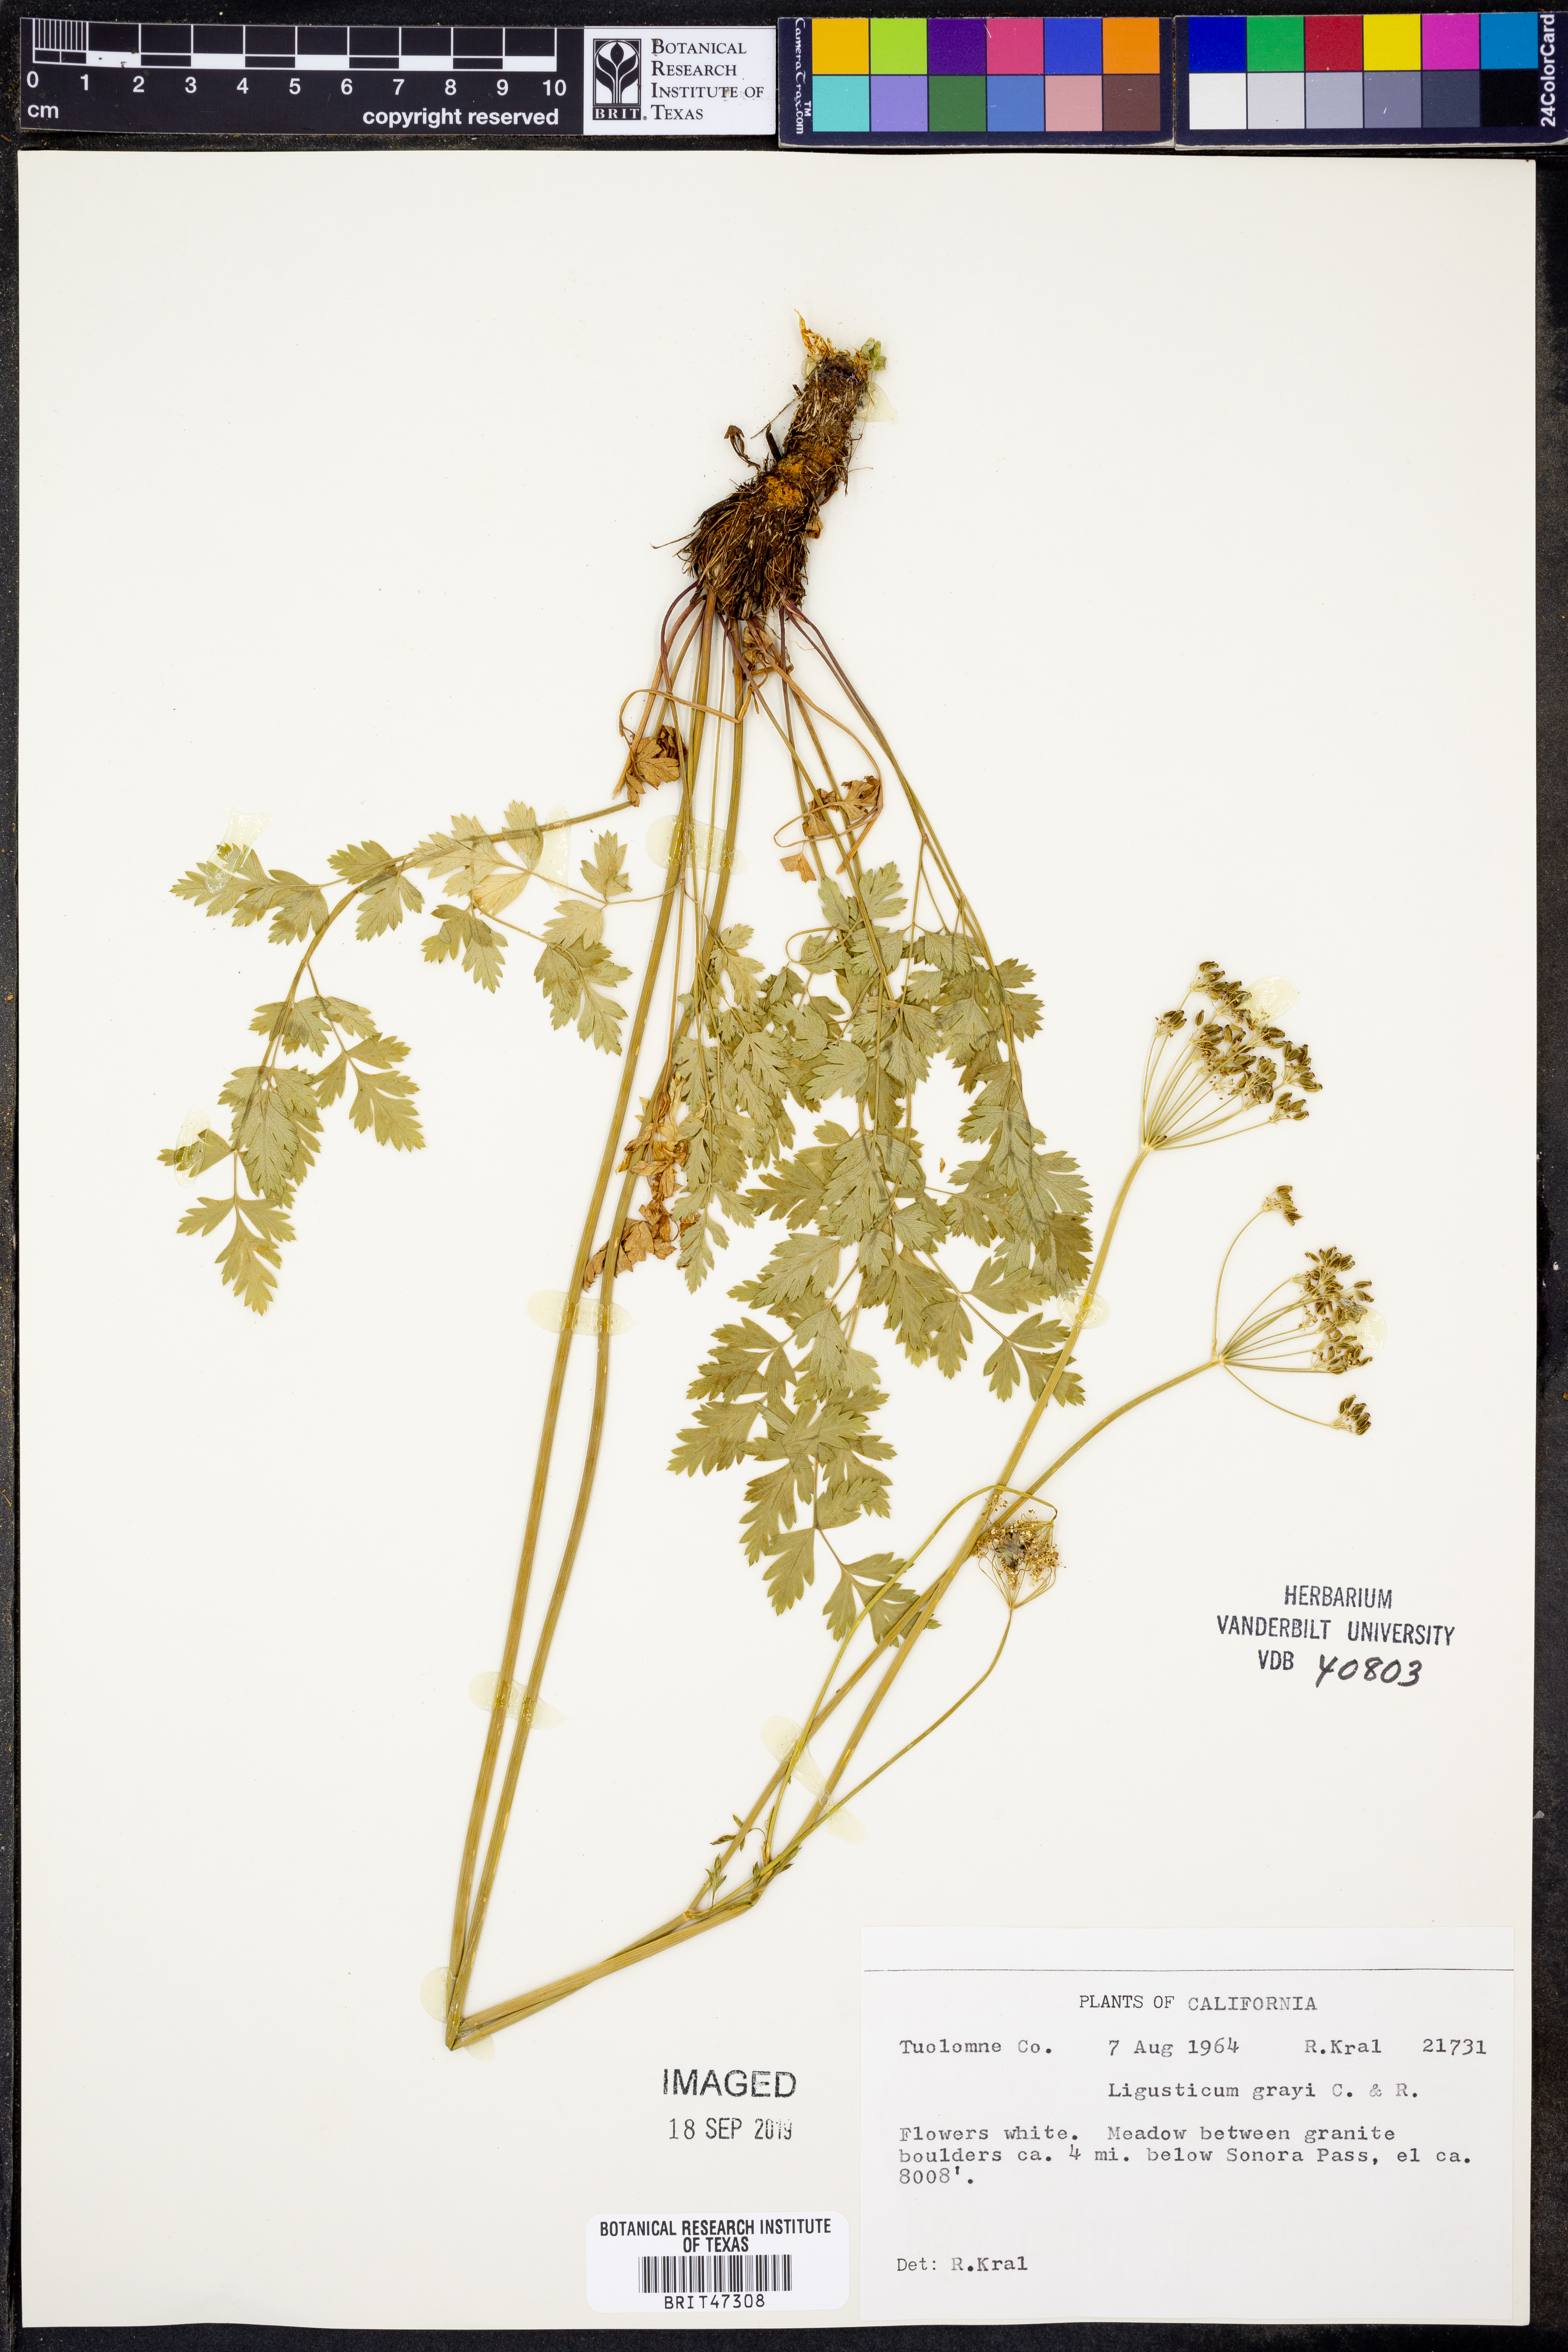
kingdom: Plantae
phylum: Tracheophyta
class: Magnoliopsida
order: Apiales
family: Apiaceae
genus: Ligusticum
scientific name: Ligusticum grayi
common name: Gray's licorice-root
